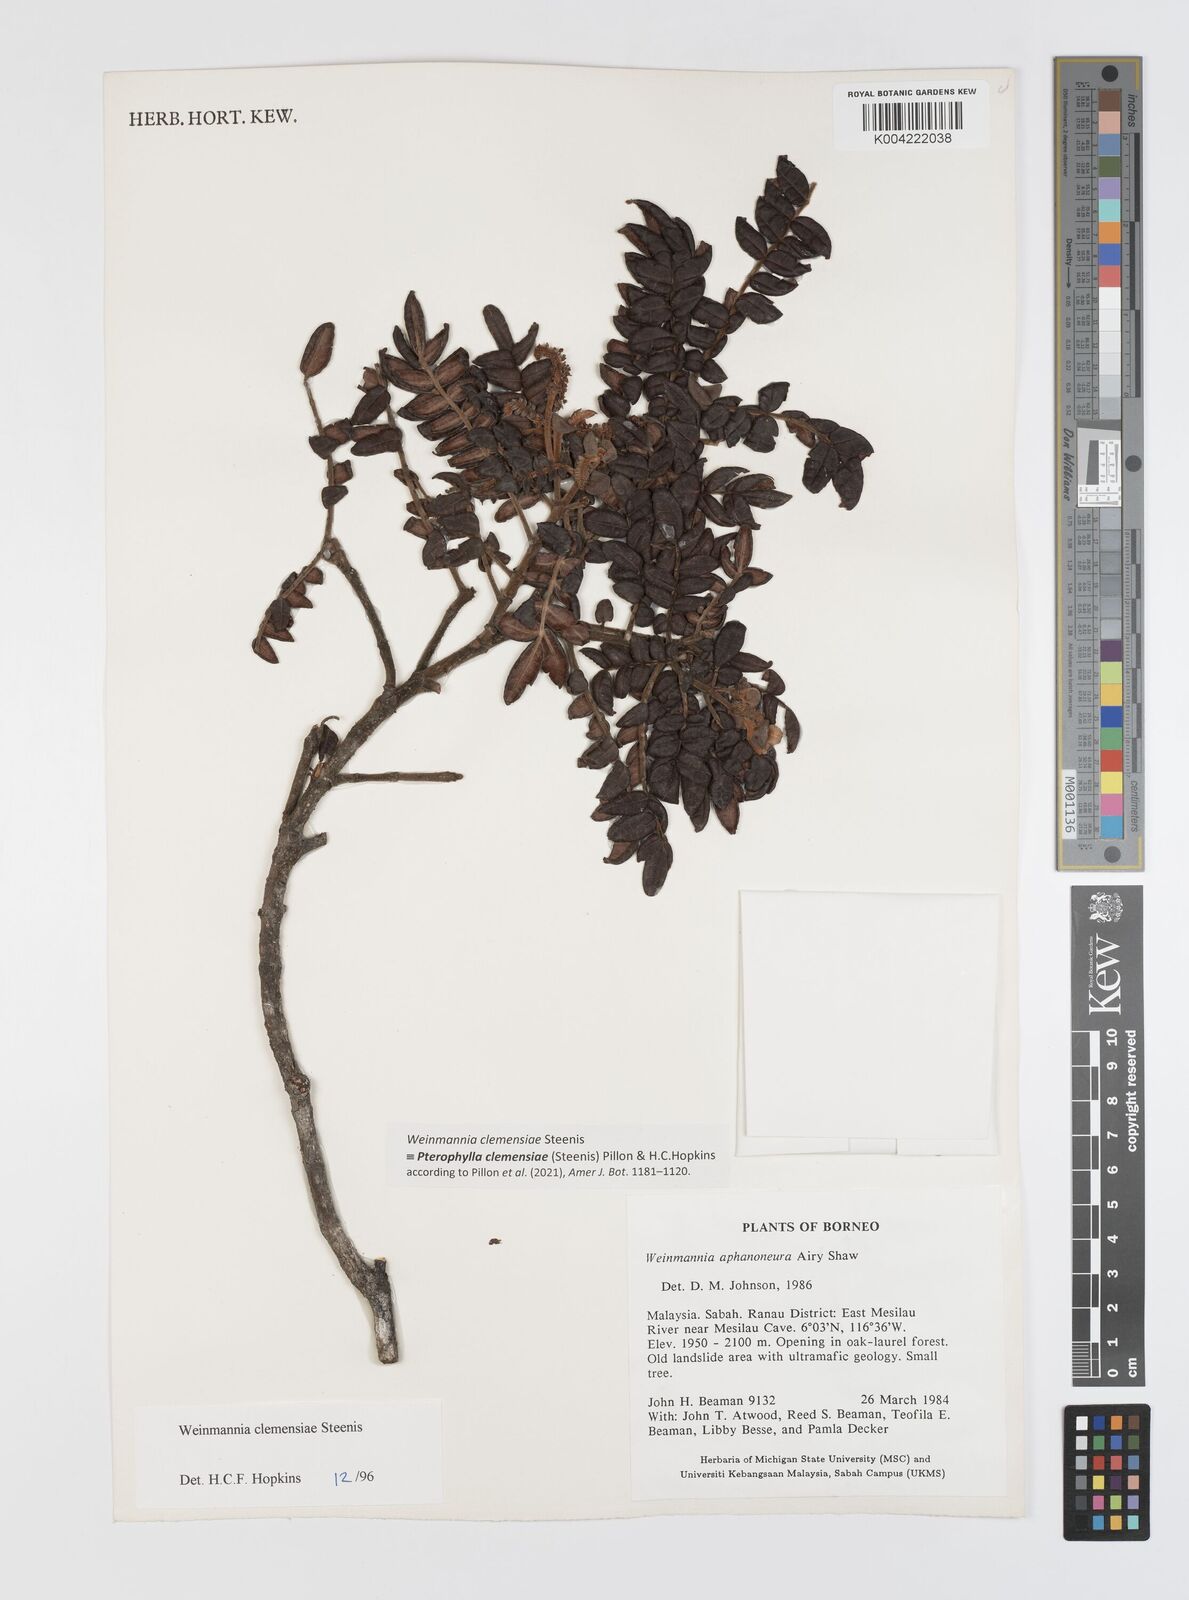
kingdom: Plantae
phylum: Tracheophyta
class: Magnoliopsida
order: Oxalidales
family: Cunoniaceae
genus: Pterophylla
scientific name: Pterophylla clemensiae
